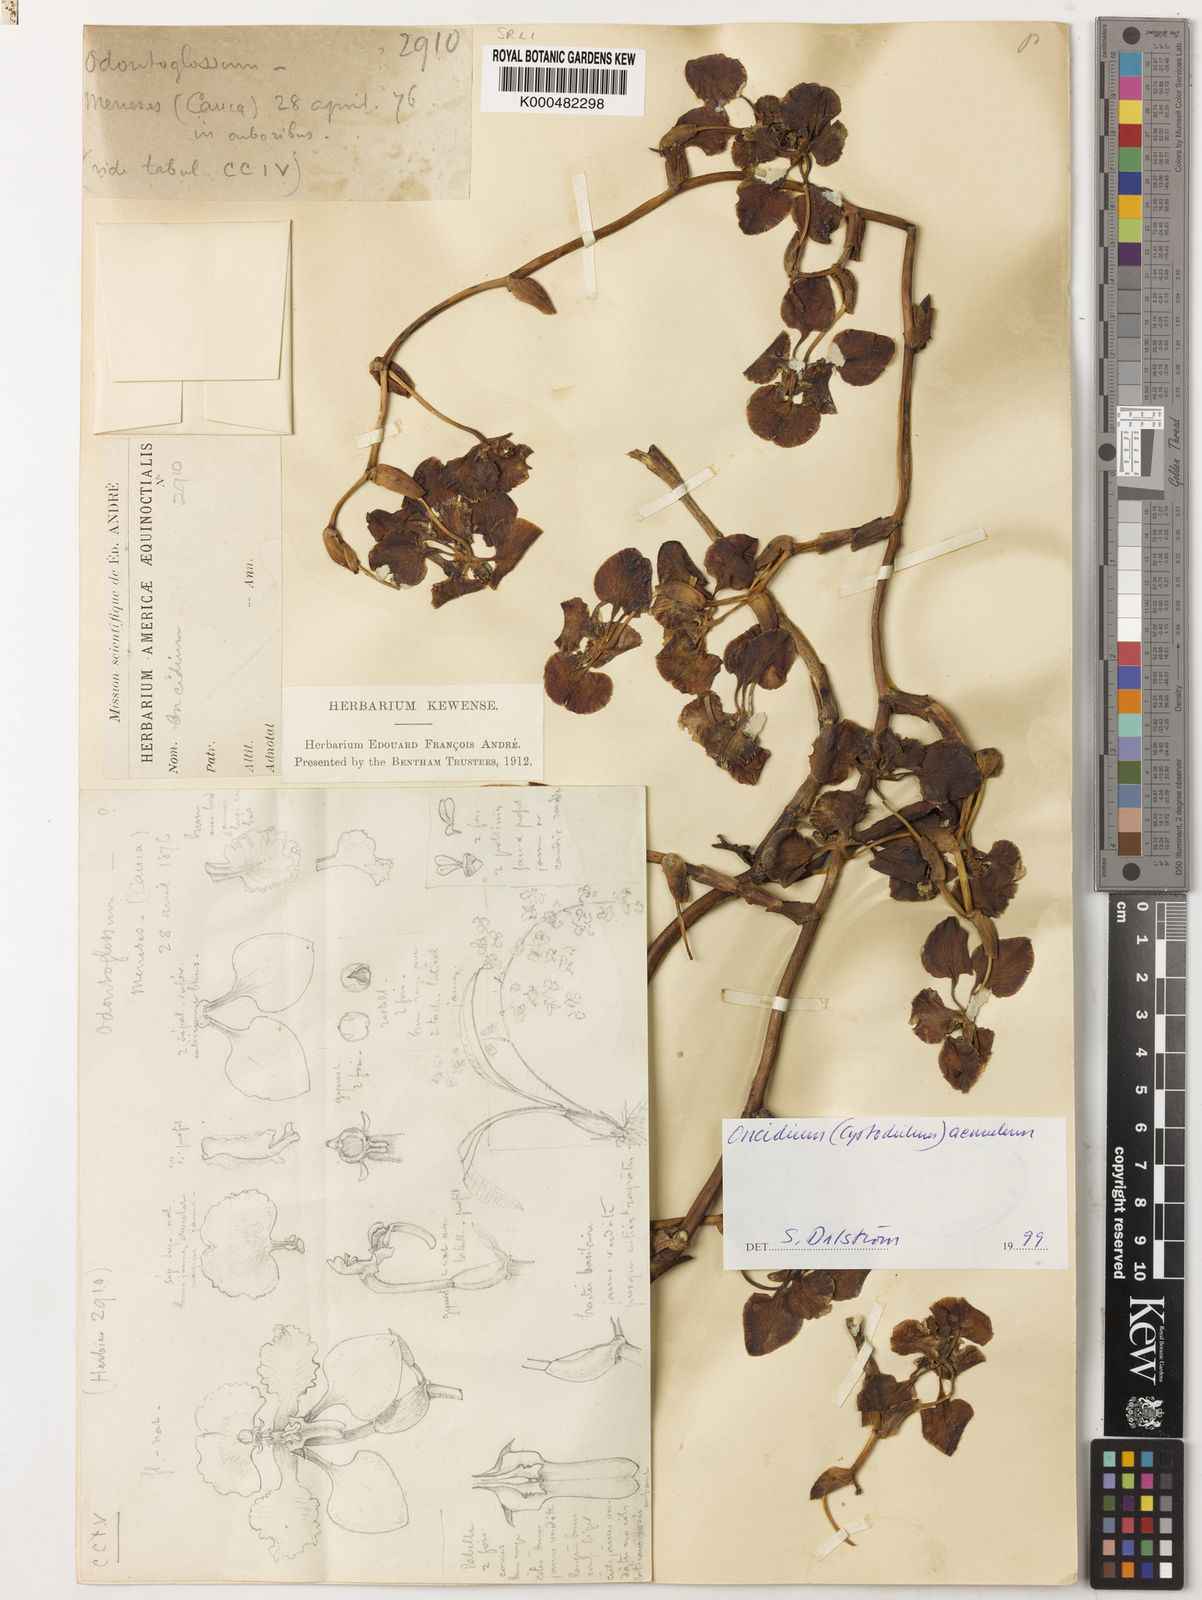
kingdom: Plantae
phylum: Tracheophyta
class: Liliopsida
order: Asparagales
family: Orchidaceae
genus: Cyrtochilum
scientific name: Cyrtochilum halteratum
